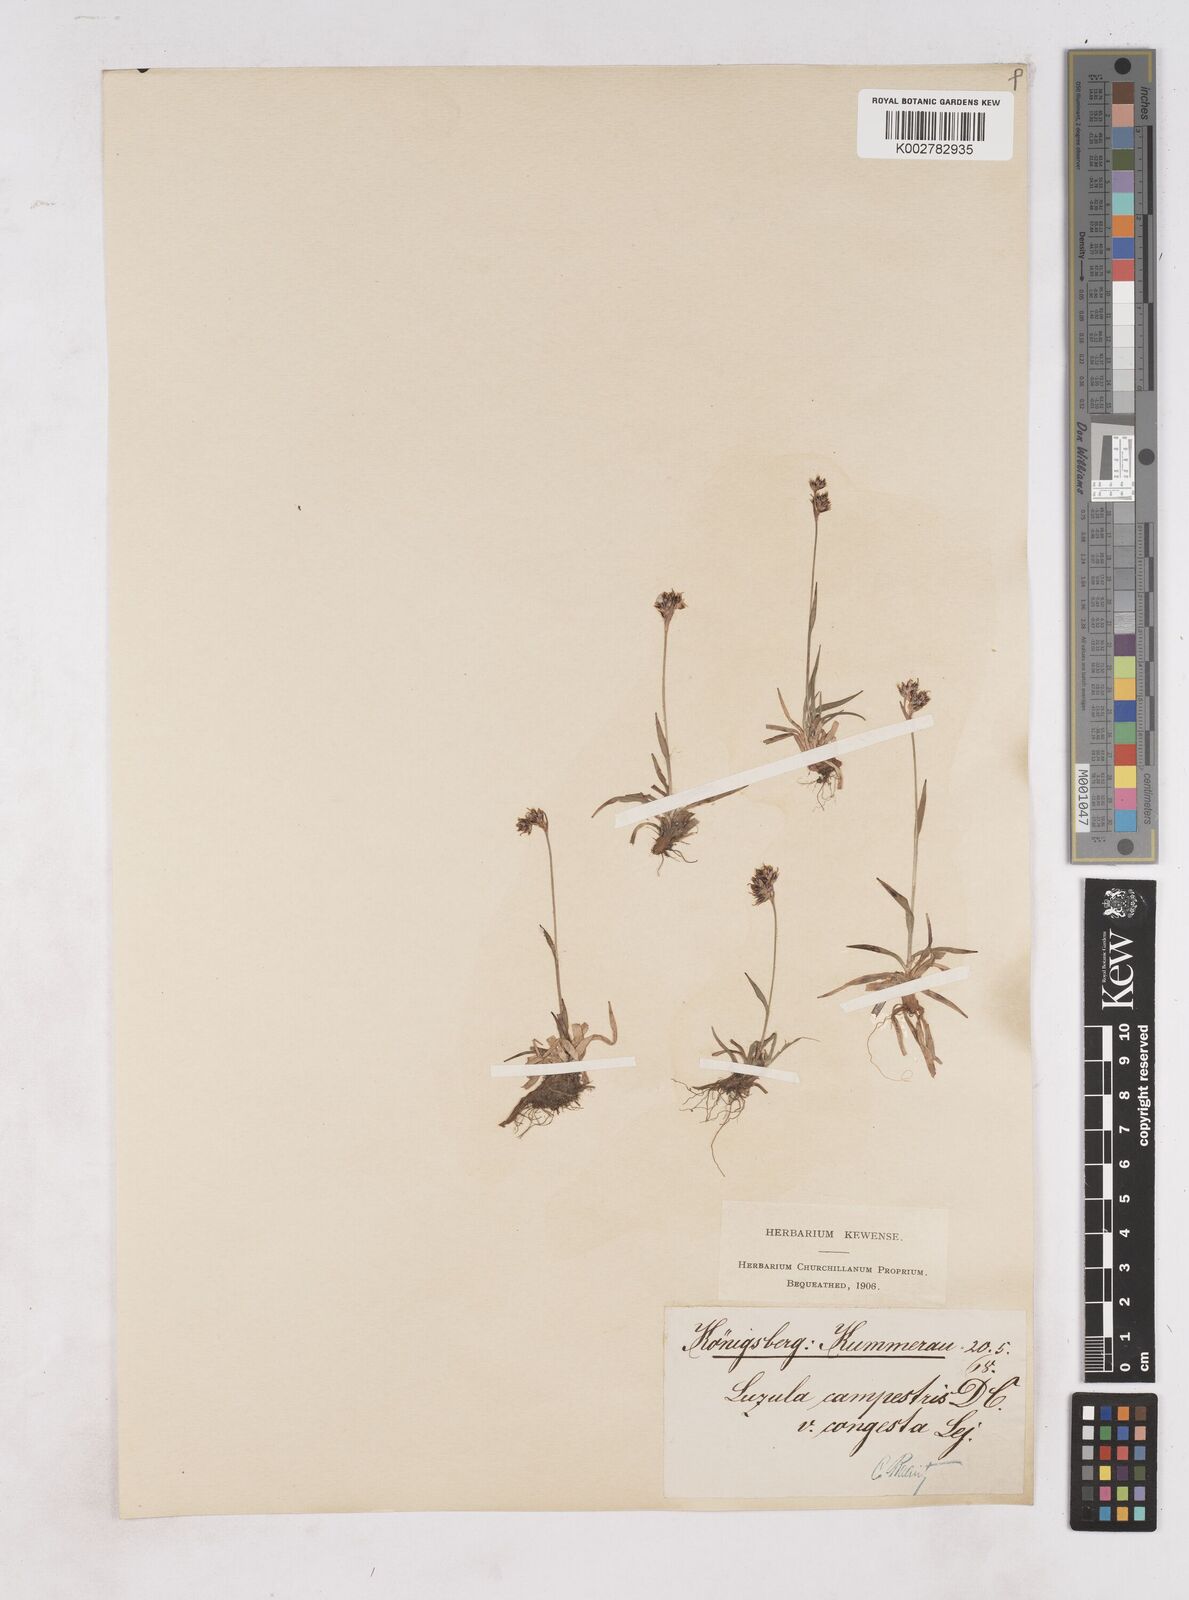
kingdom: Plantae
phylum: Tracheophyta
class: Liliopsida
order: Poales
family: Juncaceae
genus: Luzula
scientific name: Luzula campestris
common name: Field wood-rush
